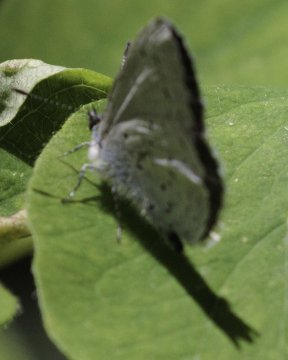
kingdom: Animalia
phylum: Arthropoda
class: Insecta
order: Lepidoptera
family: Lycaenidae
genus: Celastrina
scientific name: Celastrina ladon
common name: Echo Azure
